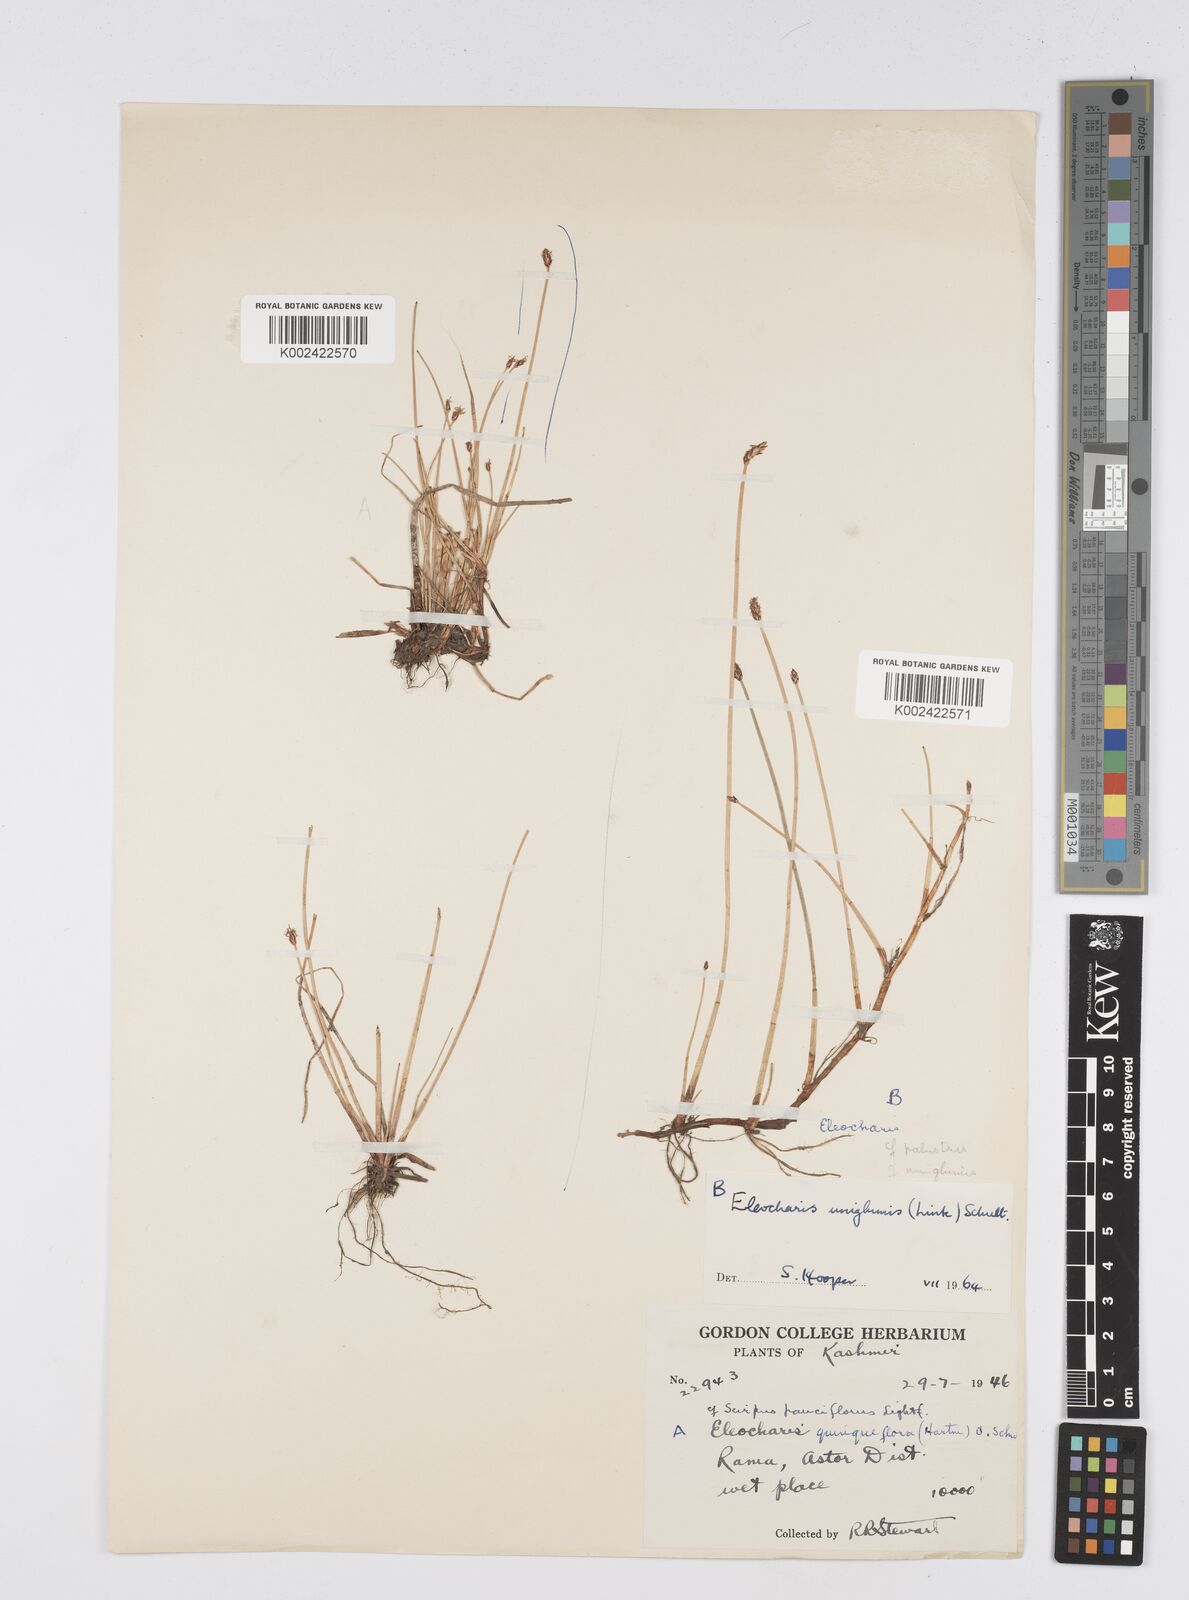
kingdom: Plantae
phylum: Tracheophyta
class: Liliopsida
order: Poales
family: Cyperaceae
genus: Eleocharis
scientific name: Eleocharis uniglumis
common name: Slender spike-rush
